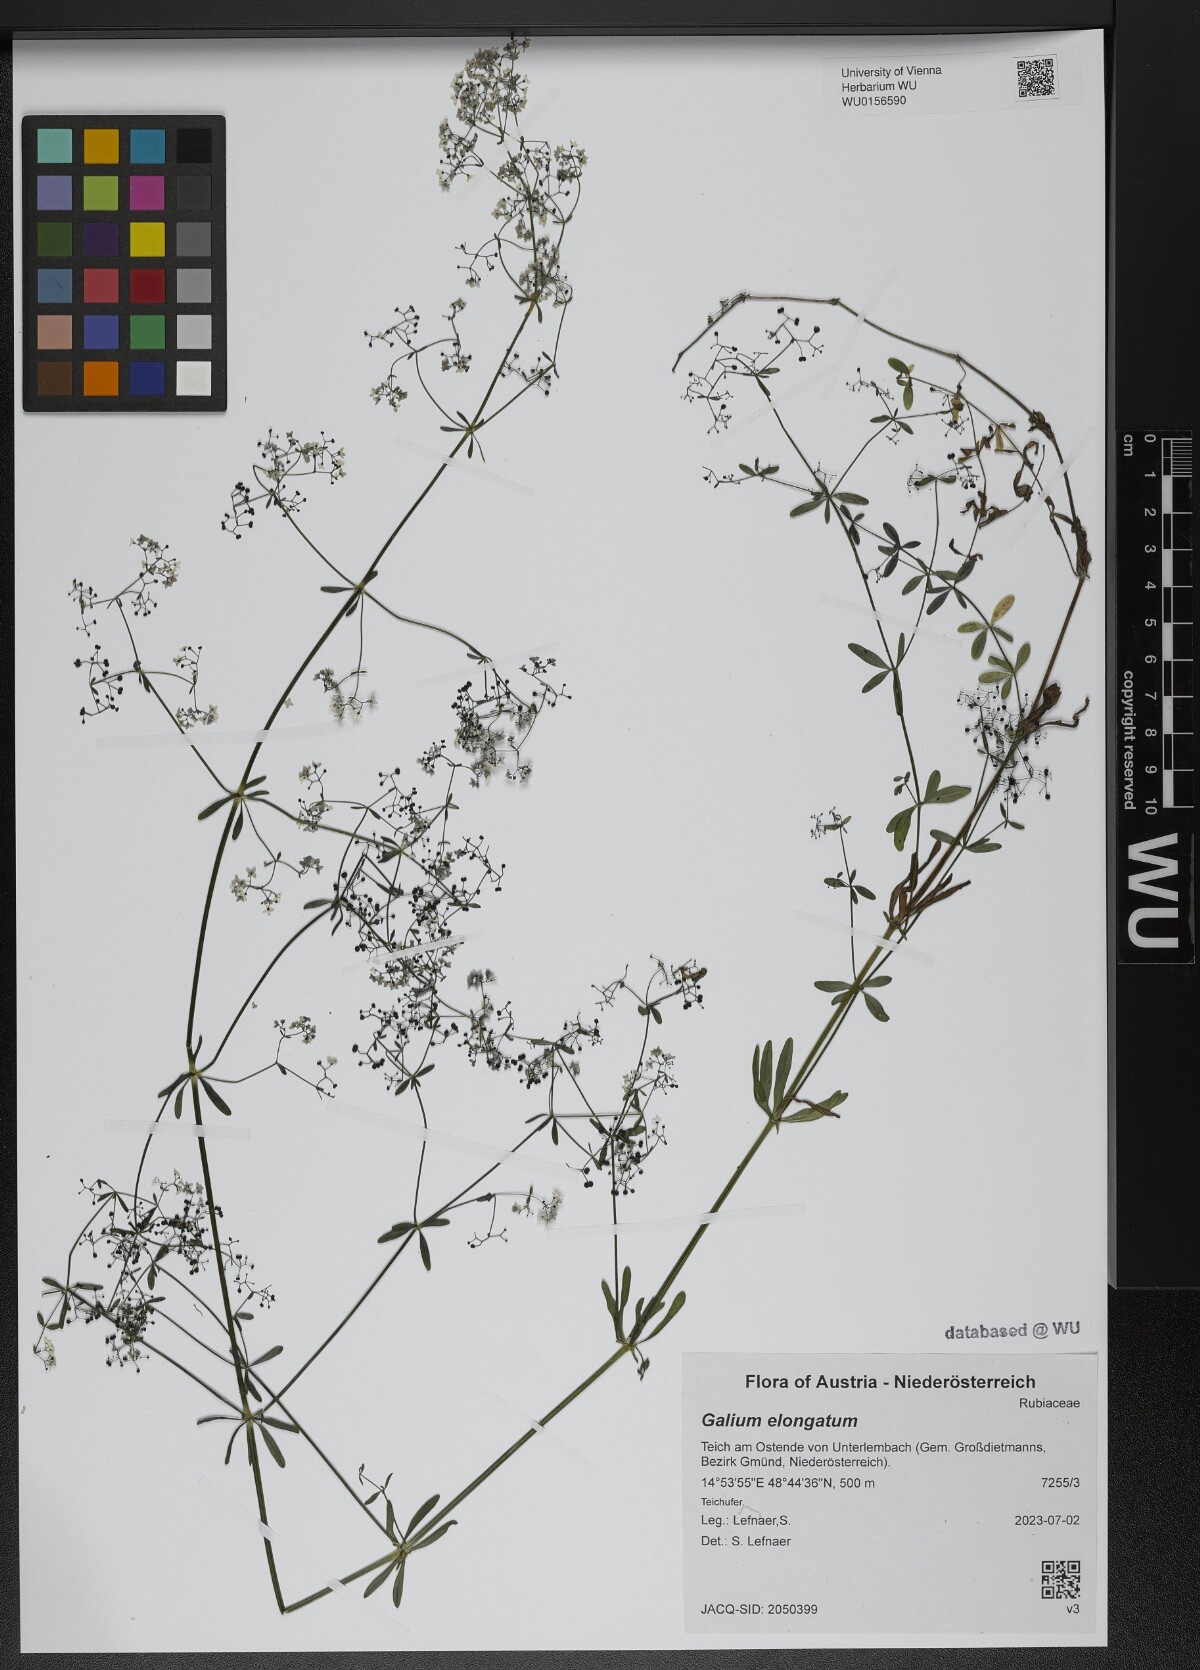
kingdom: Plantae
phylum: Tracheophyta
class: Magnoliopsida
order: Gentianales
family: Rubiaceae
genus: Galium
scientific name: Galium elongatum
